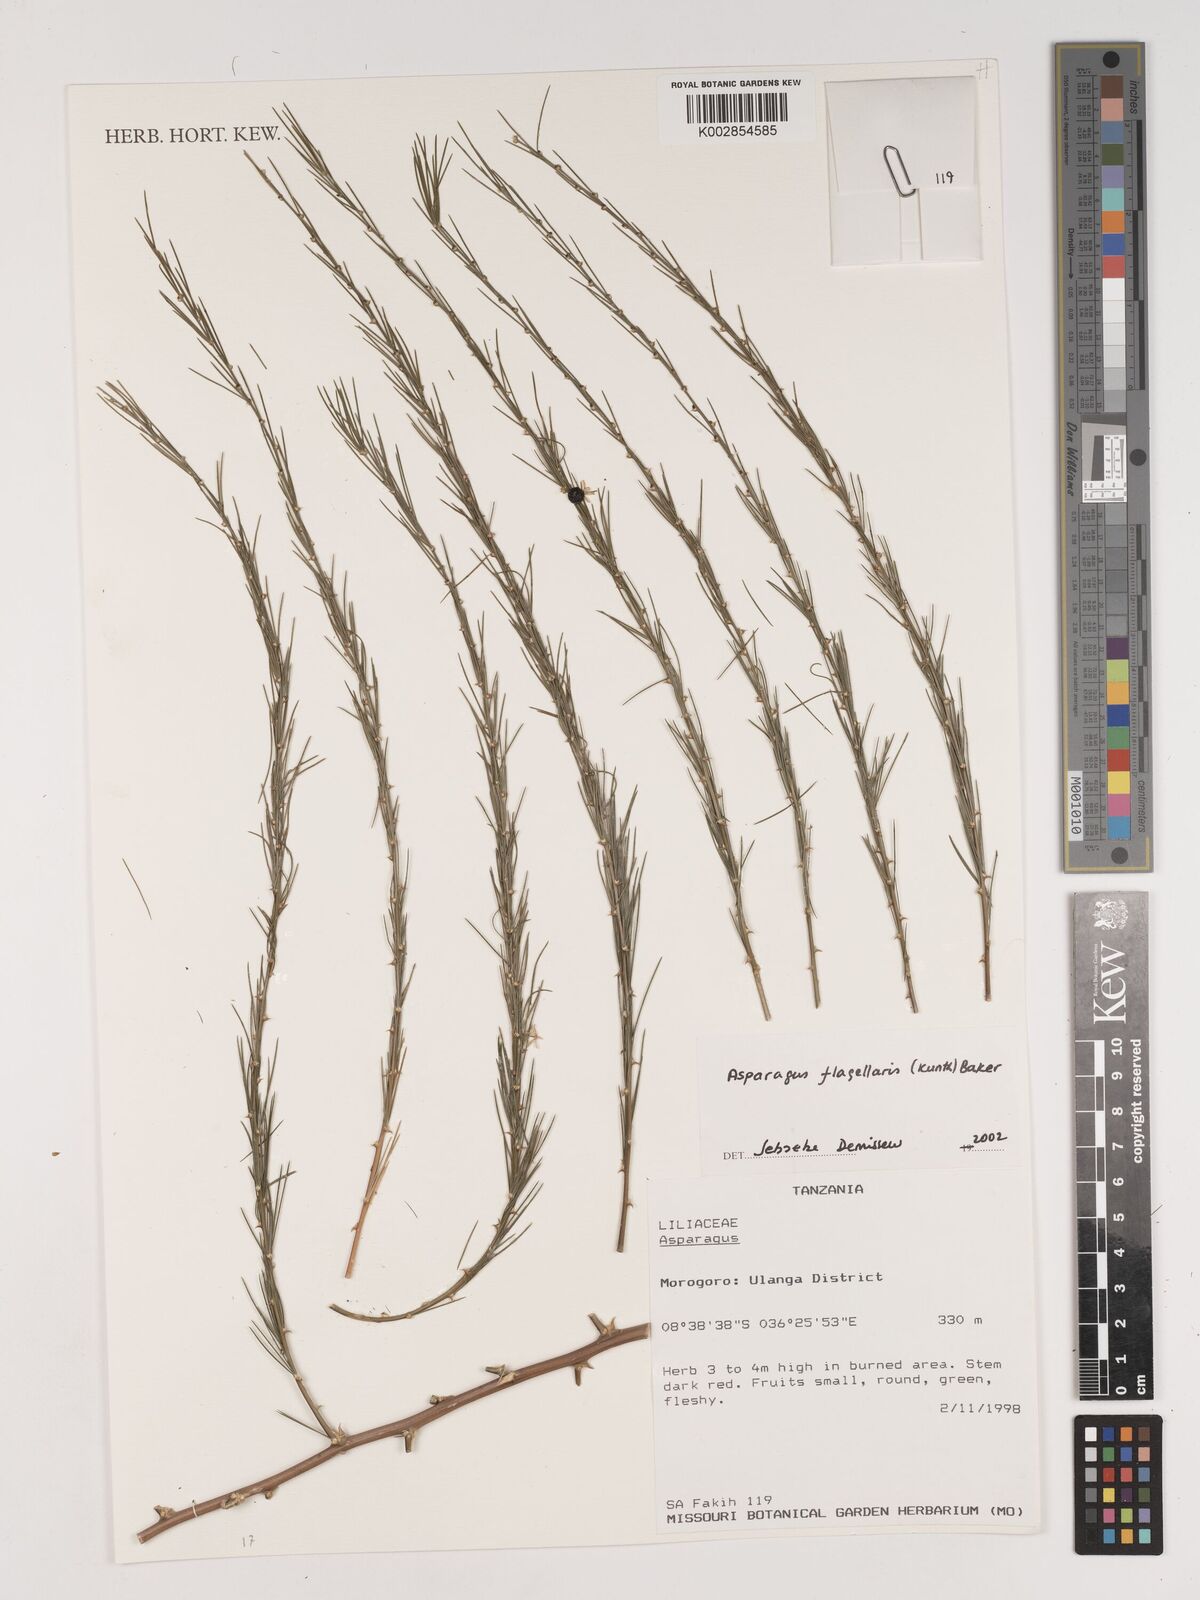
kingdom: Plantae
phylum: Tracheophyta
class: Liliopsida
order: Asparagales
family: Asparagaceae
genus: Asparagus
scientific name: Asparagus flagellaris
